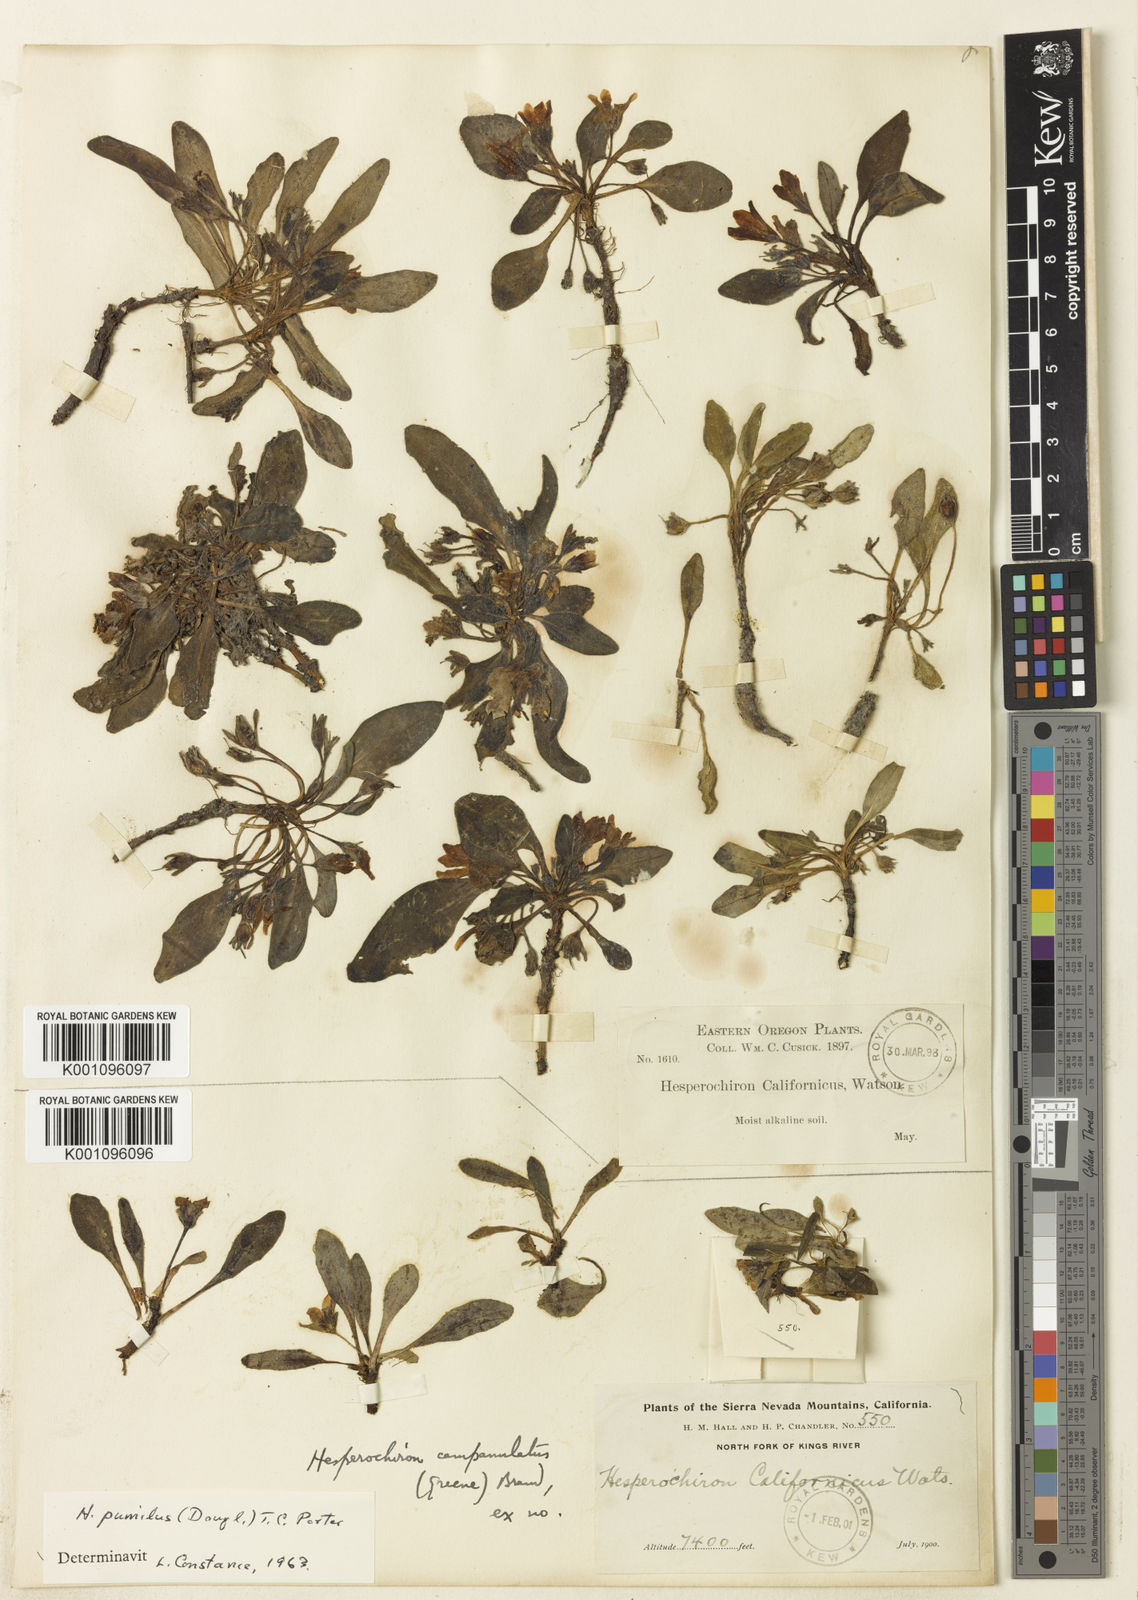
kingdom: Plantae
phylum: Tracheophyta
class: Magnoliopsida
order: Boraginales
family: Hydrophyllaceae
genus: Hesperochiron
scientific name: Hesperochiron pumilus
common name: Dwarf hesperochiron
